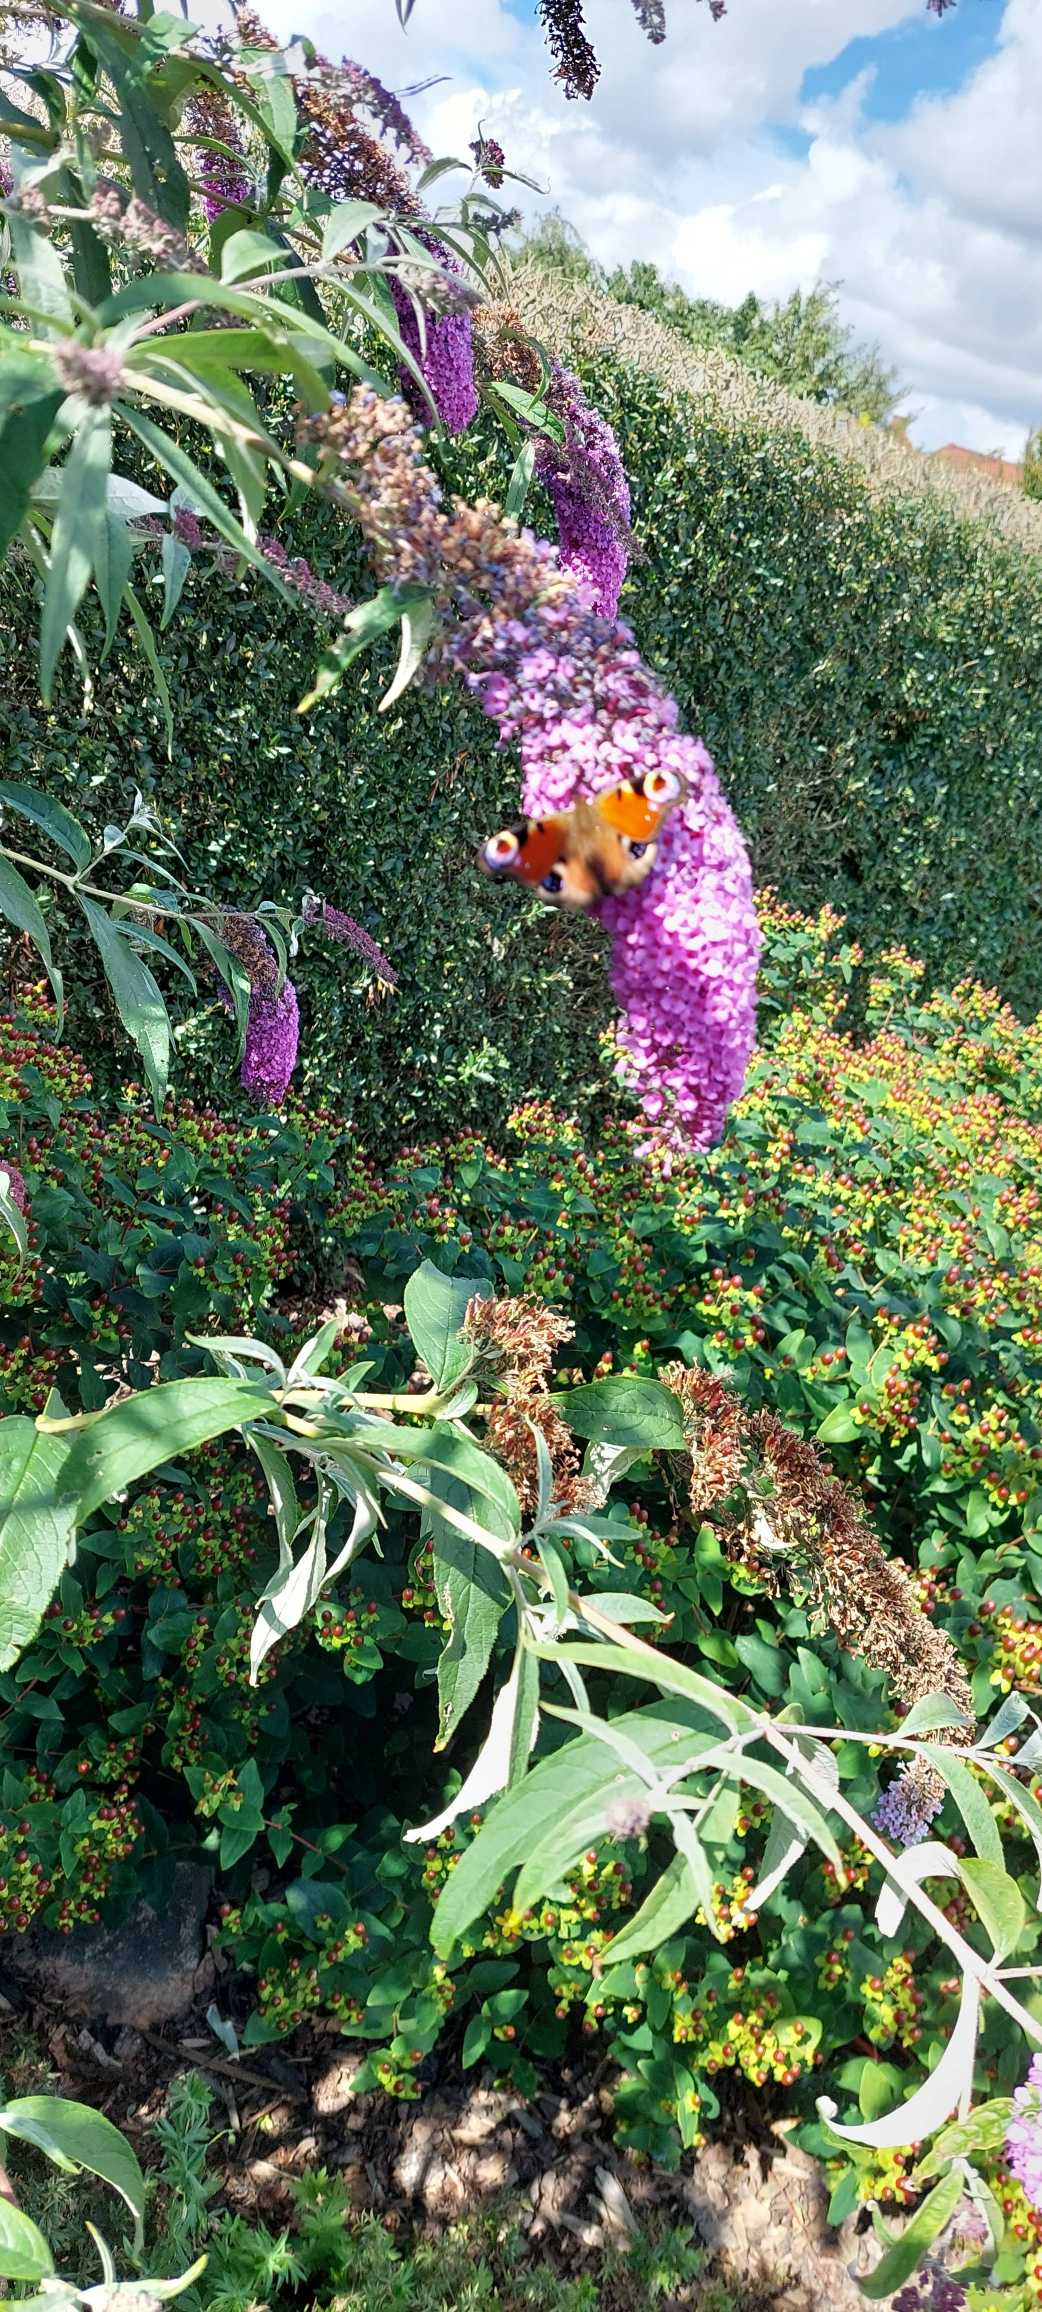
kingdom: Animalia
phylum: Arthropoda
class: Insecta
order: Lepidoptera
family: Nymphalidae
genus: Aglais
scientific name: Aglais io
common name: Dagpåfugleøje
